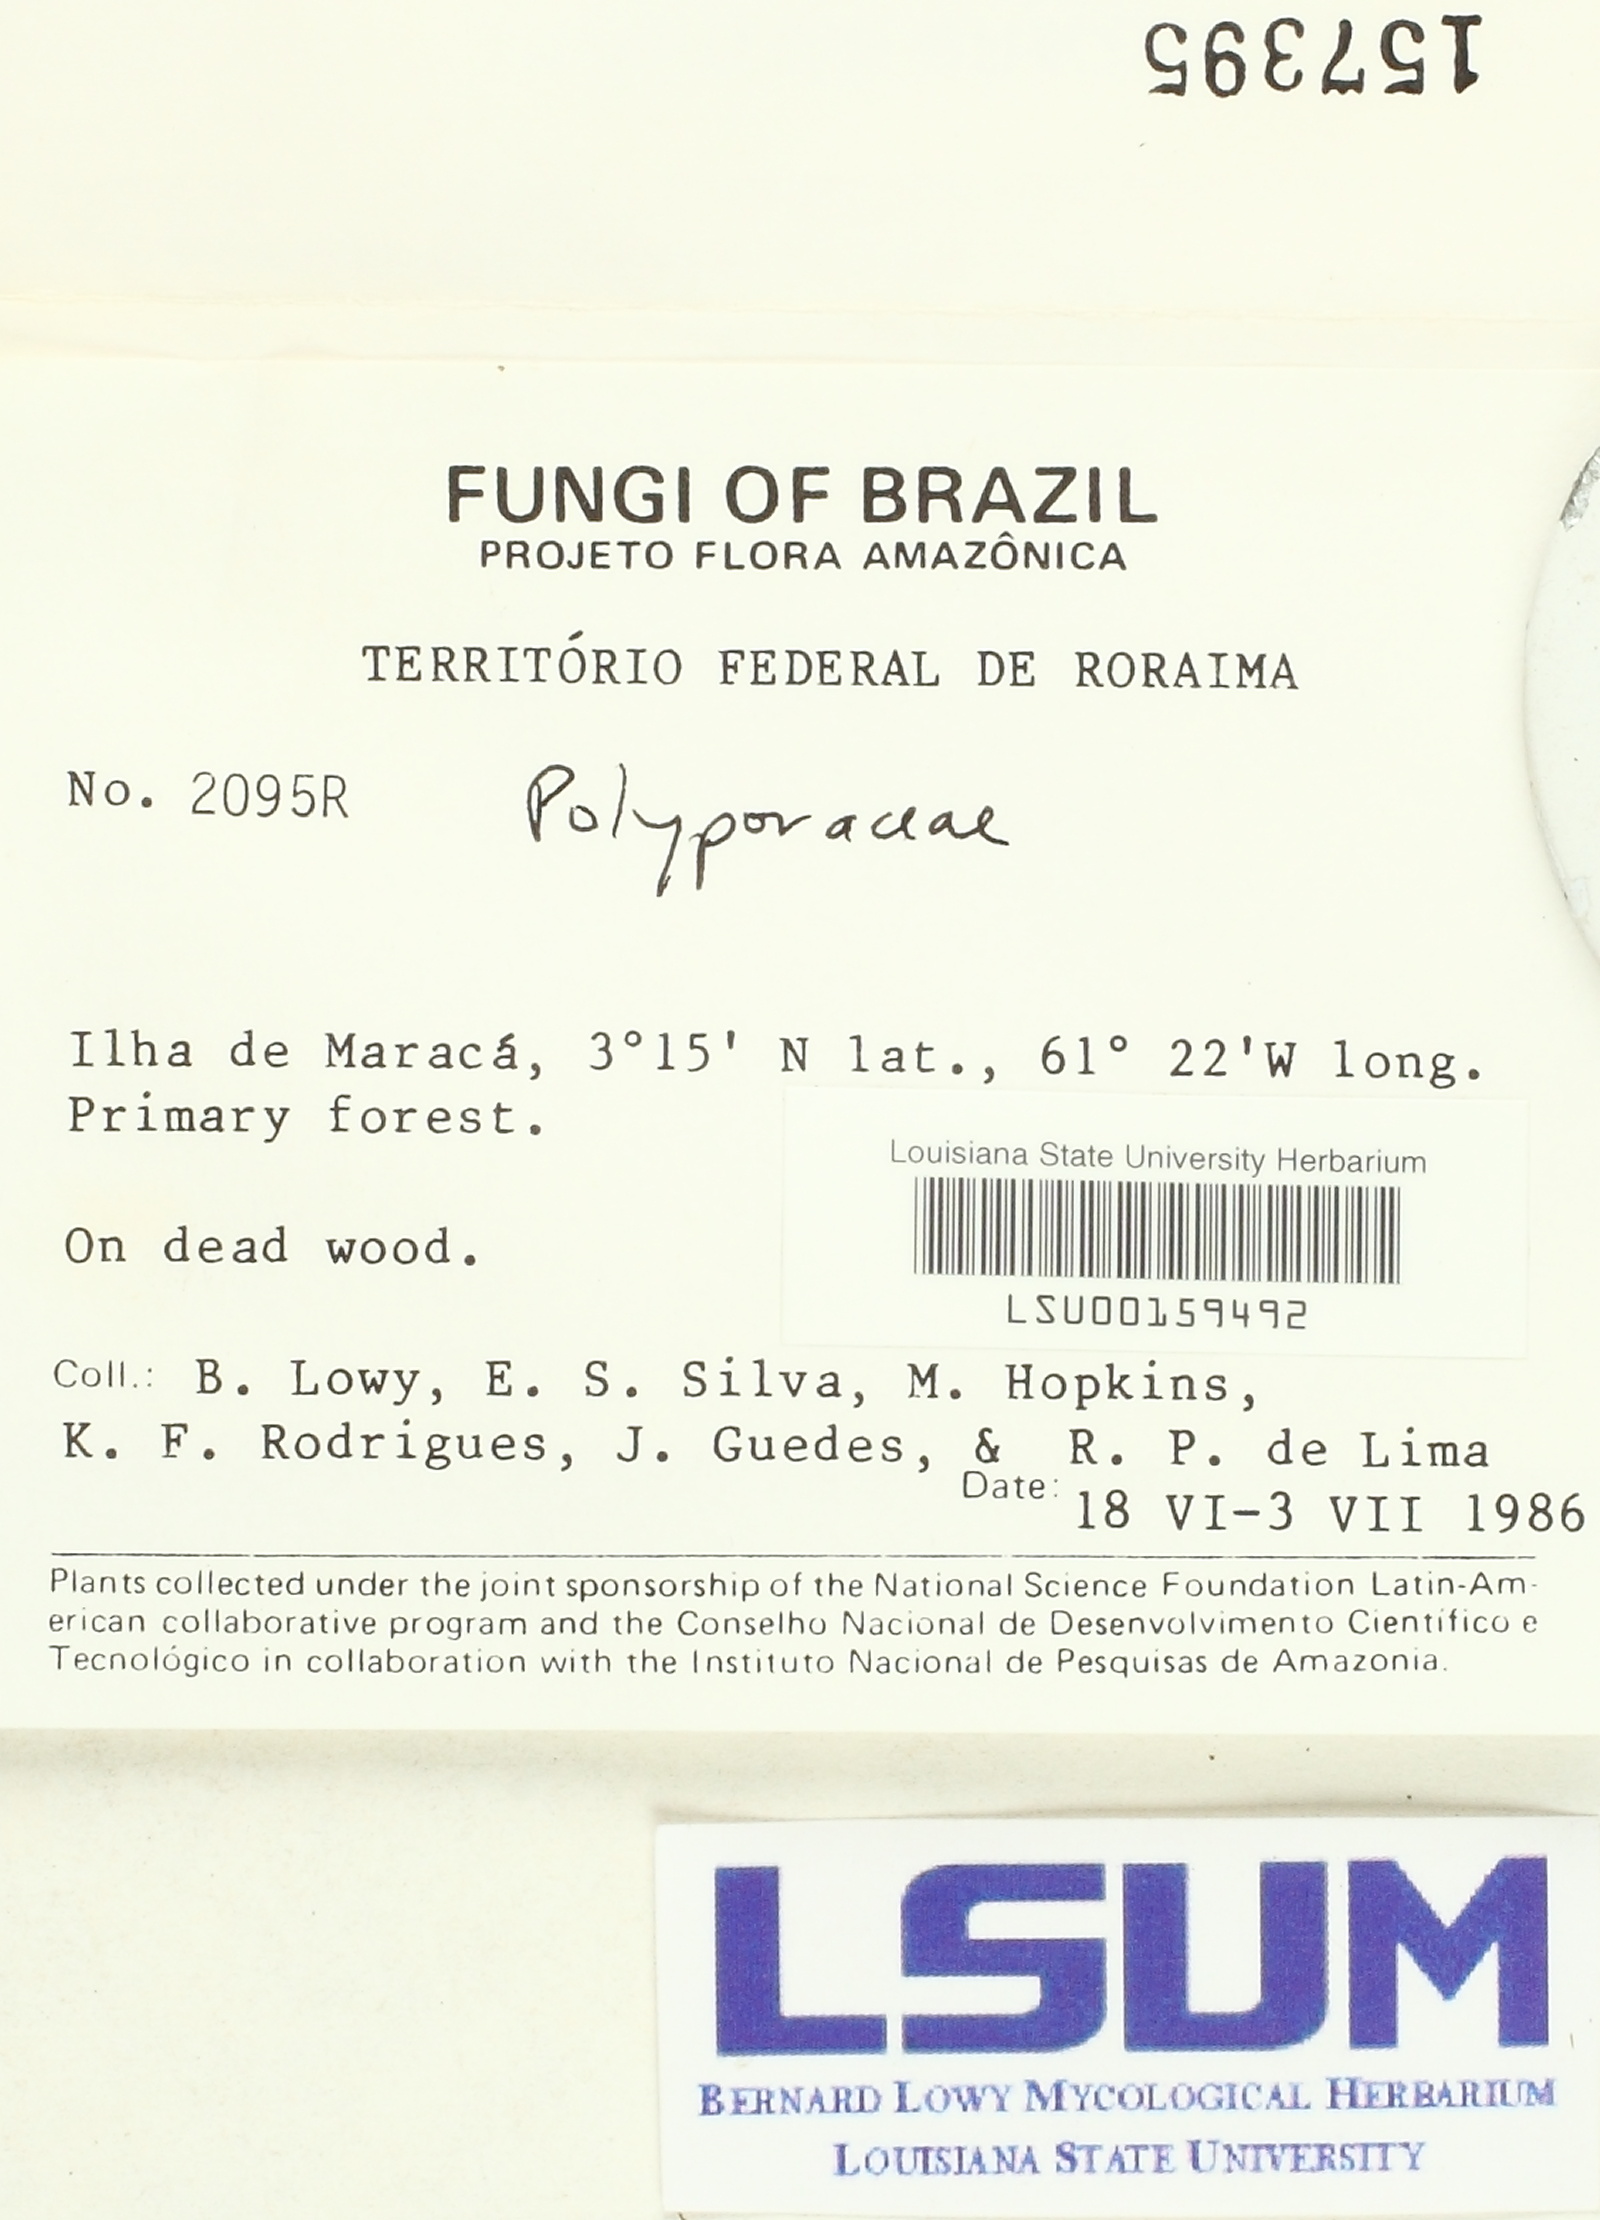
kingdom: Fungi
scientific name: Fungi
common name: Fungi
